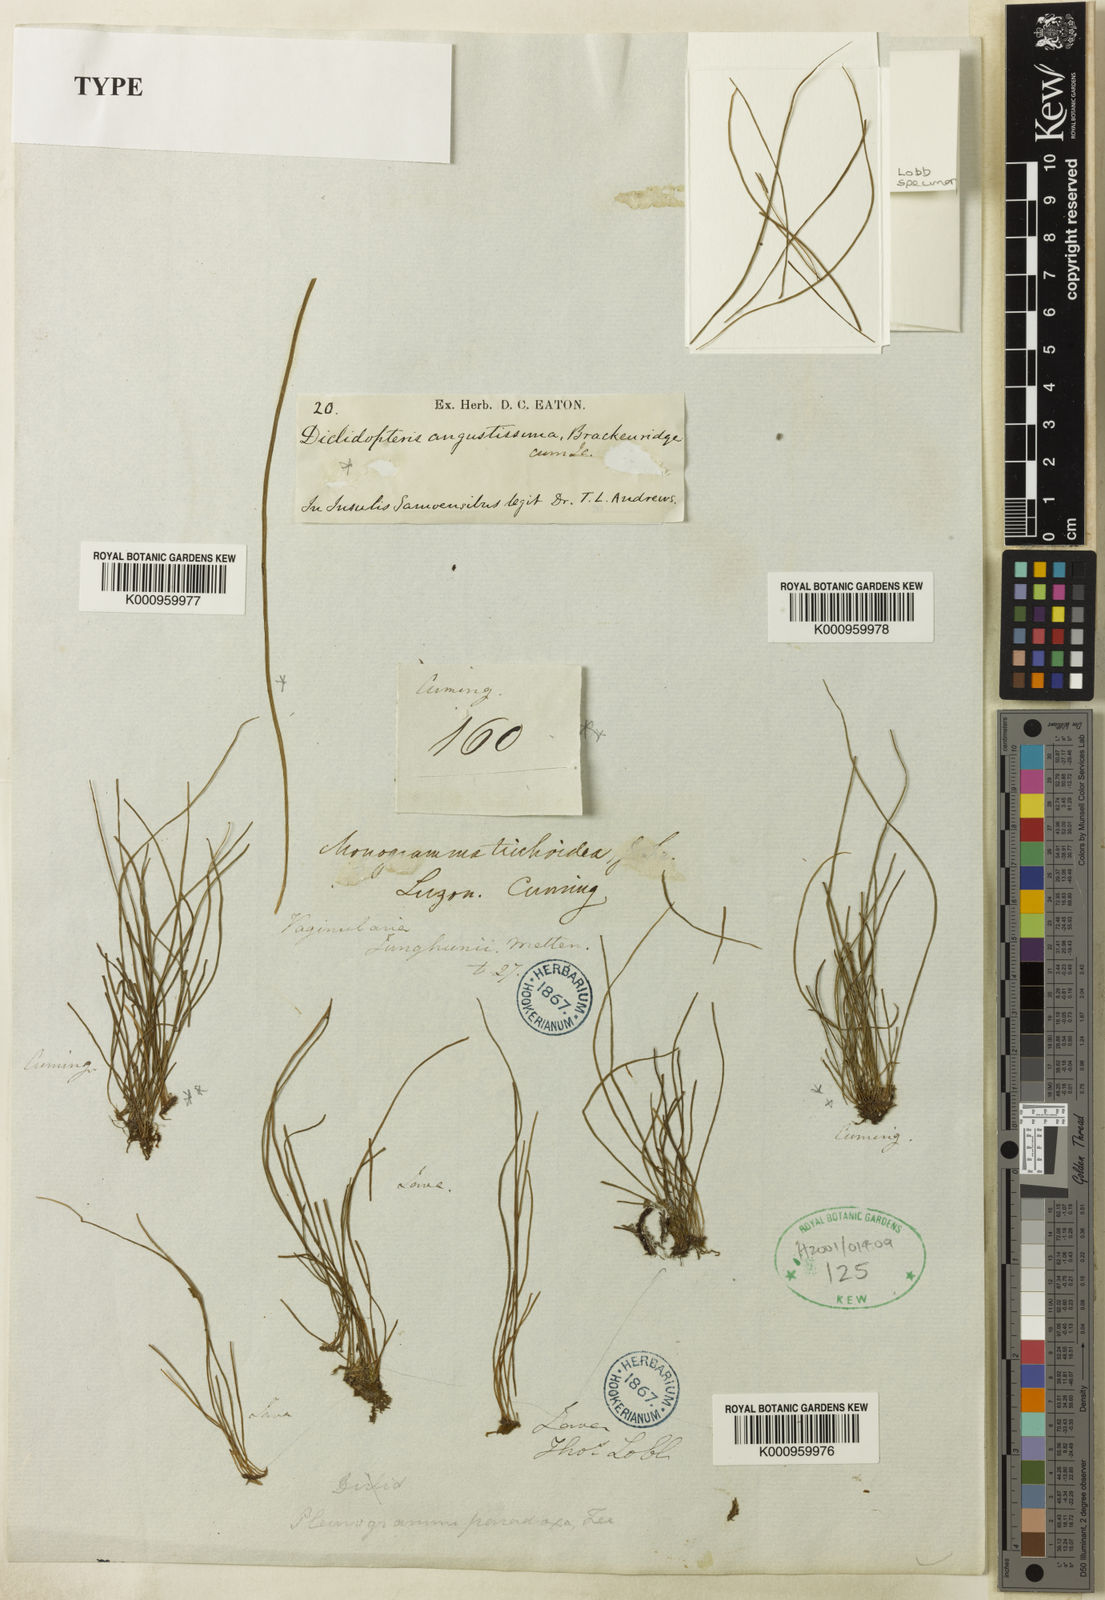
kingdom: Plantae
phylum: Tracheophyta
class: Polypodiopsida
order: Polypodiales
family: Pteridaceae
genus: Vaginularia
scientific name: Vaginularia trichoidea
